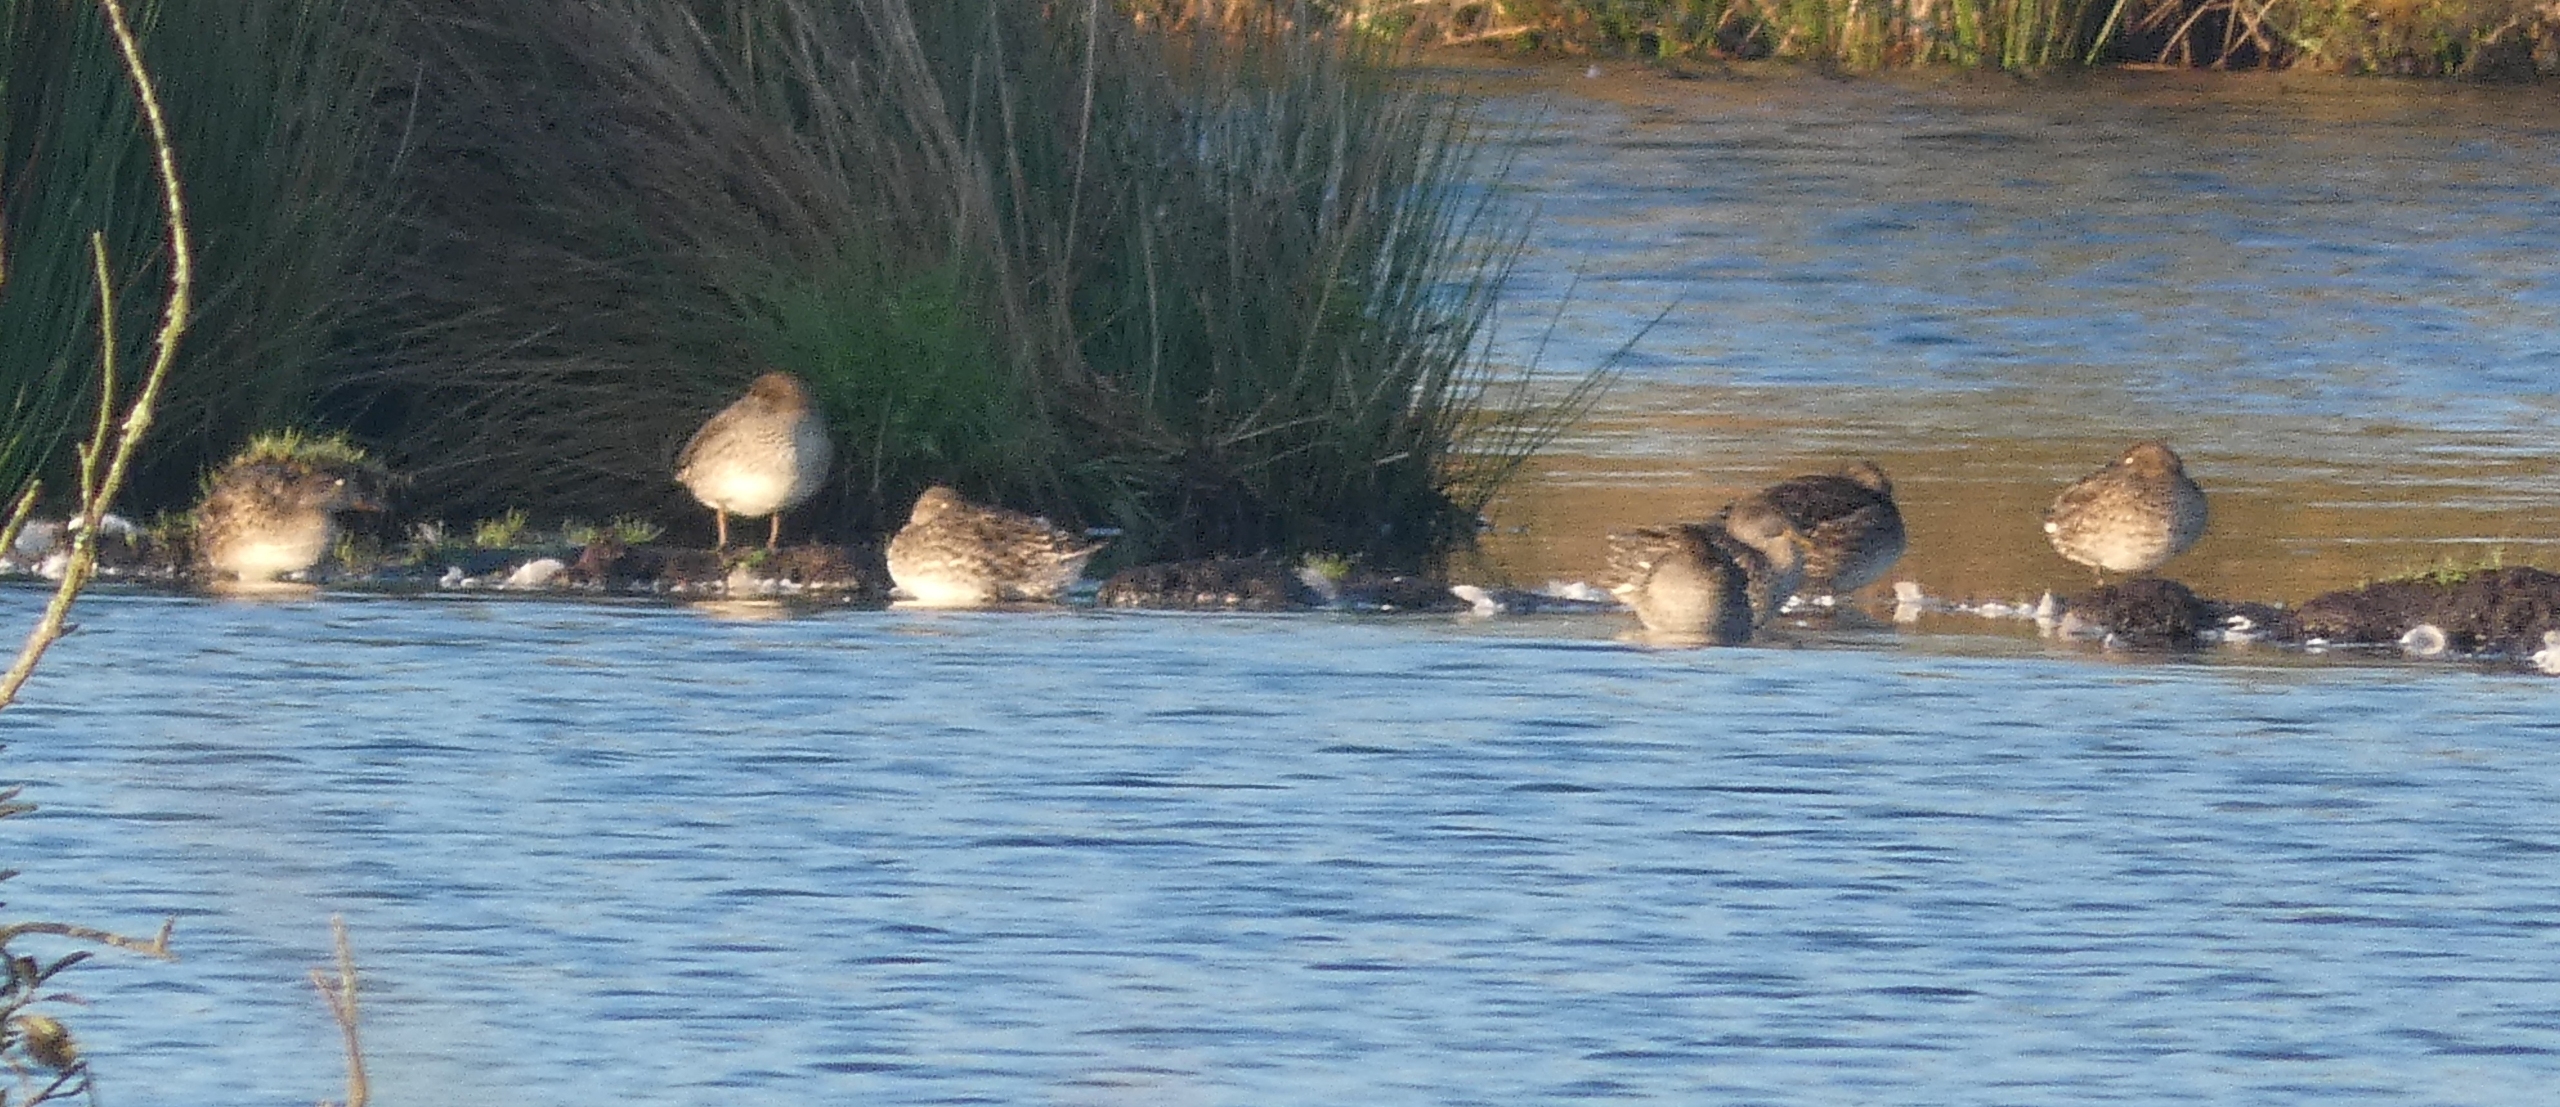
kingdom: Animalia
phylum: Chordata
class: Aves
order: Anseriformes
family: Anatidae
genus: Anas
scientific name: Anas crecca
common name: Krikand
